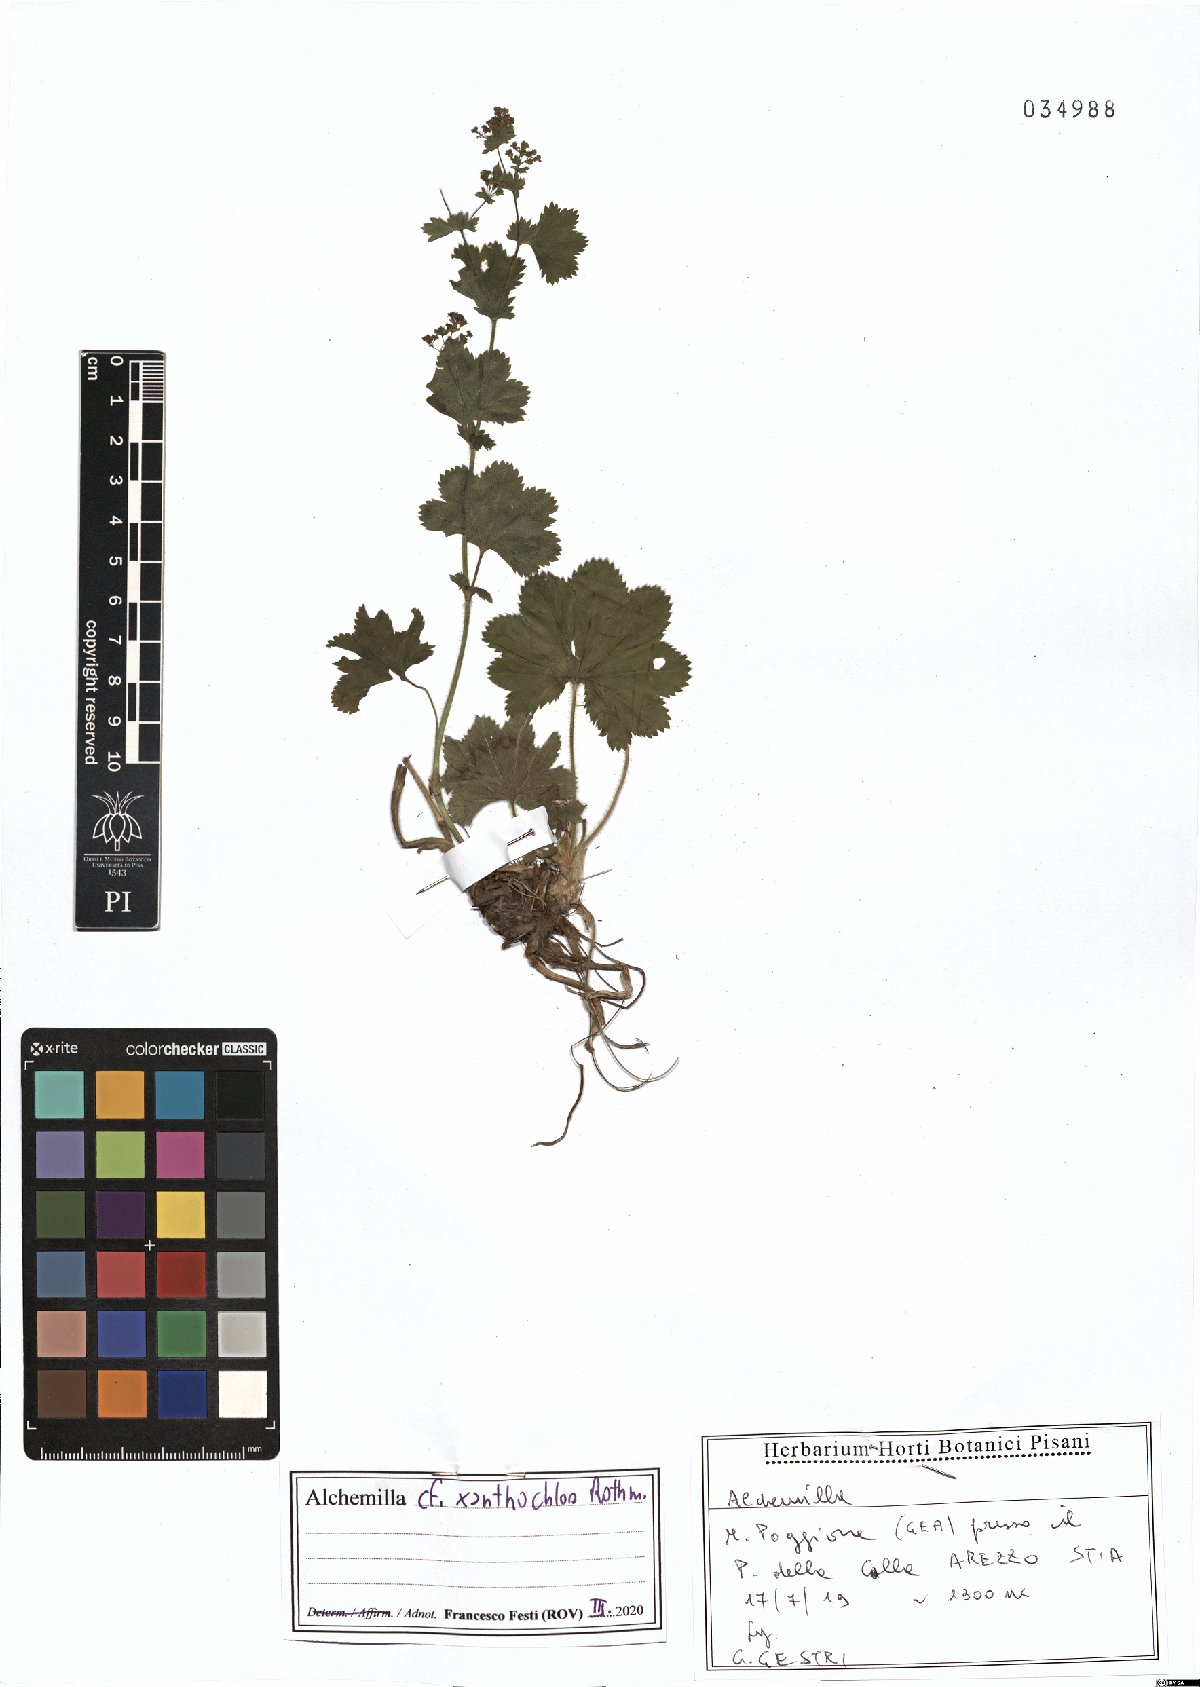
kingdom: Plantae
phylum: Tracheophyta
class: Magnoliopsida
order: Rosales
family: Rosaceae
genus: Alchemilla
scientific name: Alchemilla xanthochlora
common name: Intermediate lady's-mantle
